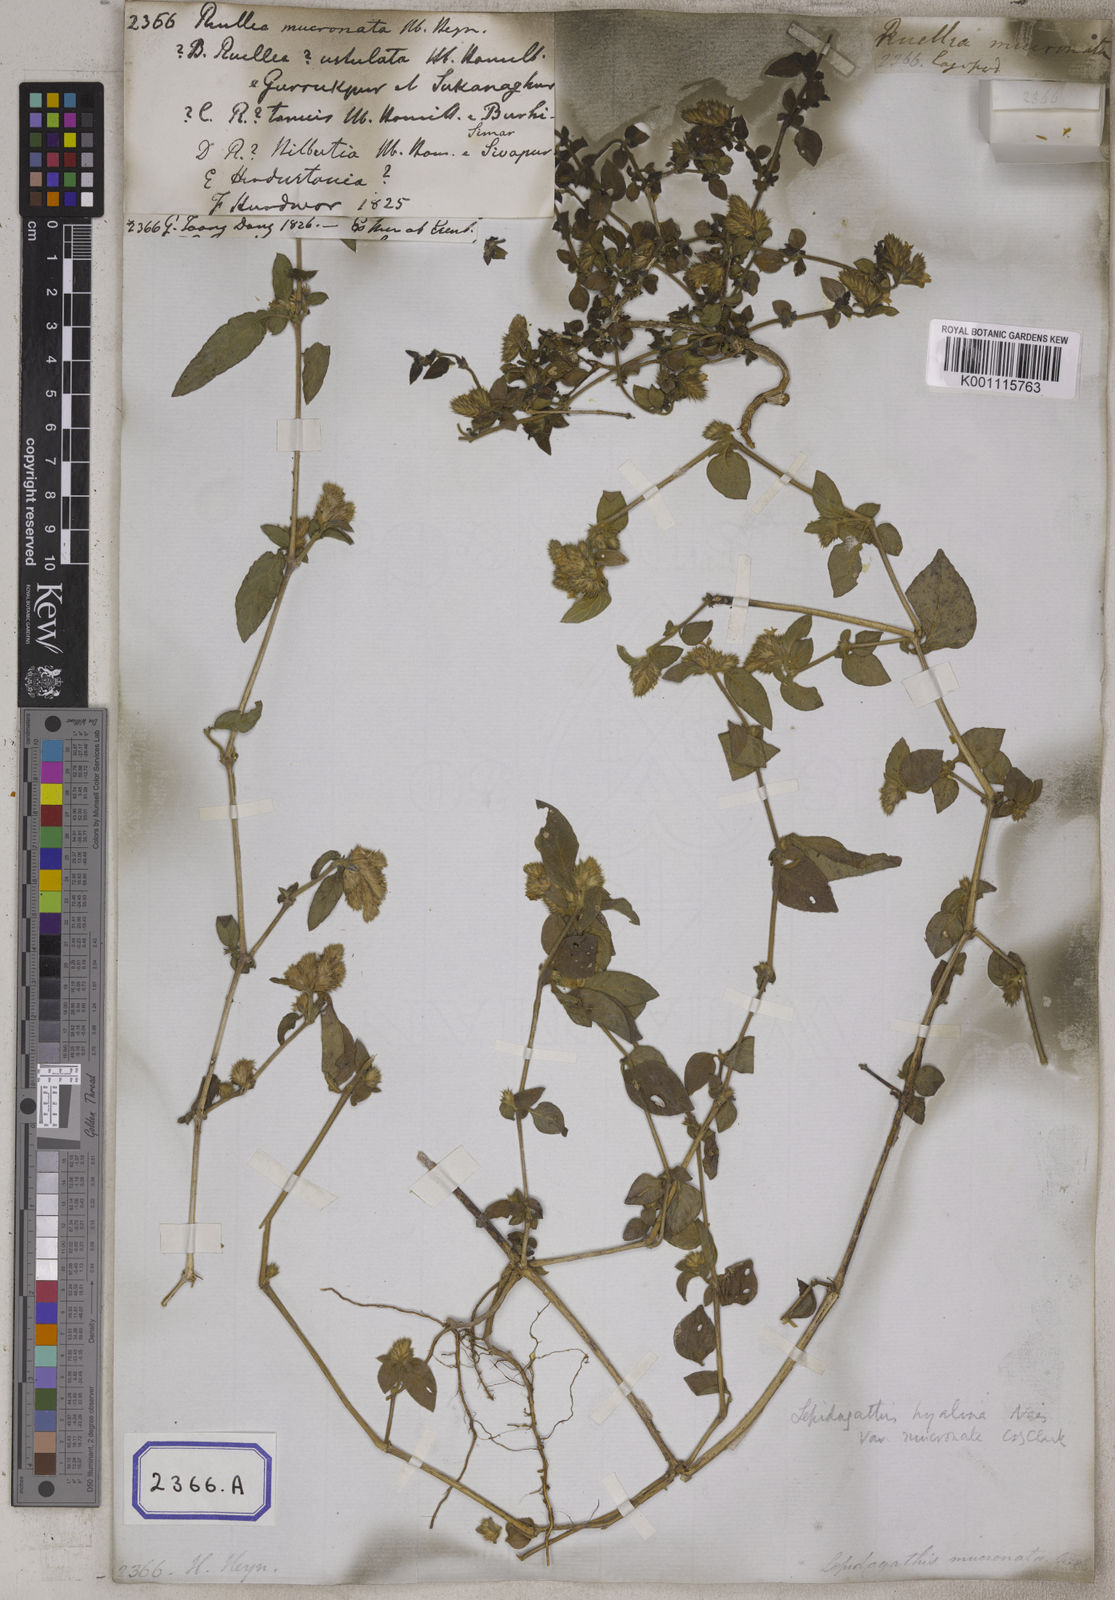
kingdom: Plantae
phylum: Tracheophyta
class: Magnoliopsida
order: Lamiales
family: Acanthaceae
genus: Lepidagathis
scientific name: Lepidagathis purpuricaulis
